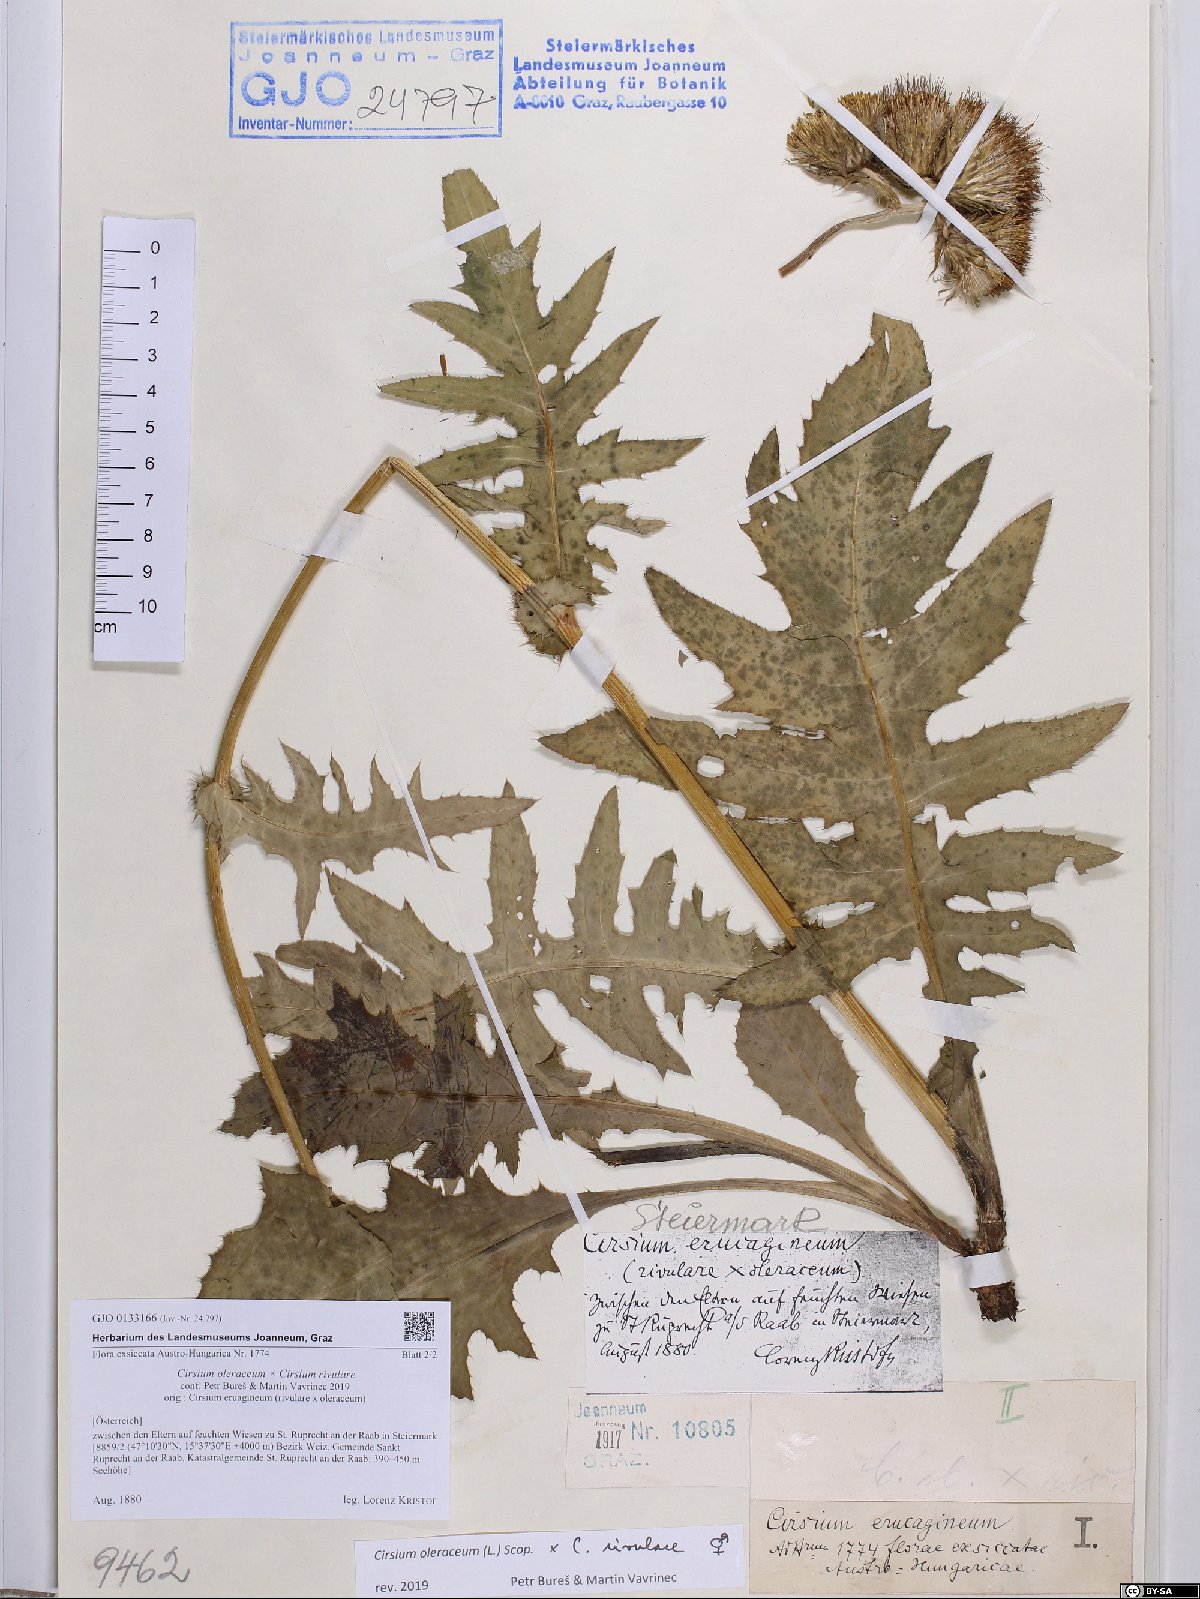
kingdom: Plantae
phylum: Tracheophyta
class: Magnoliopsida
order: Asterales
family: Asteraceae
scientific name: Asteraceae
